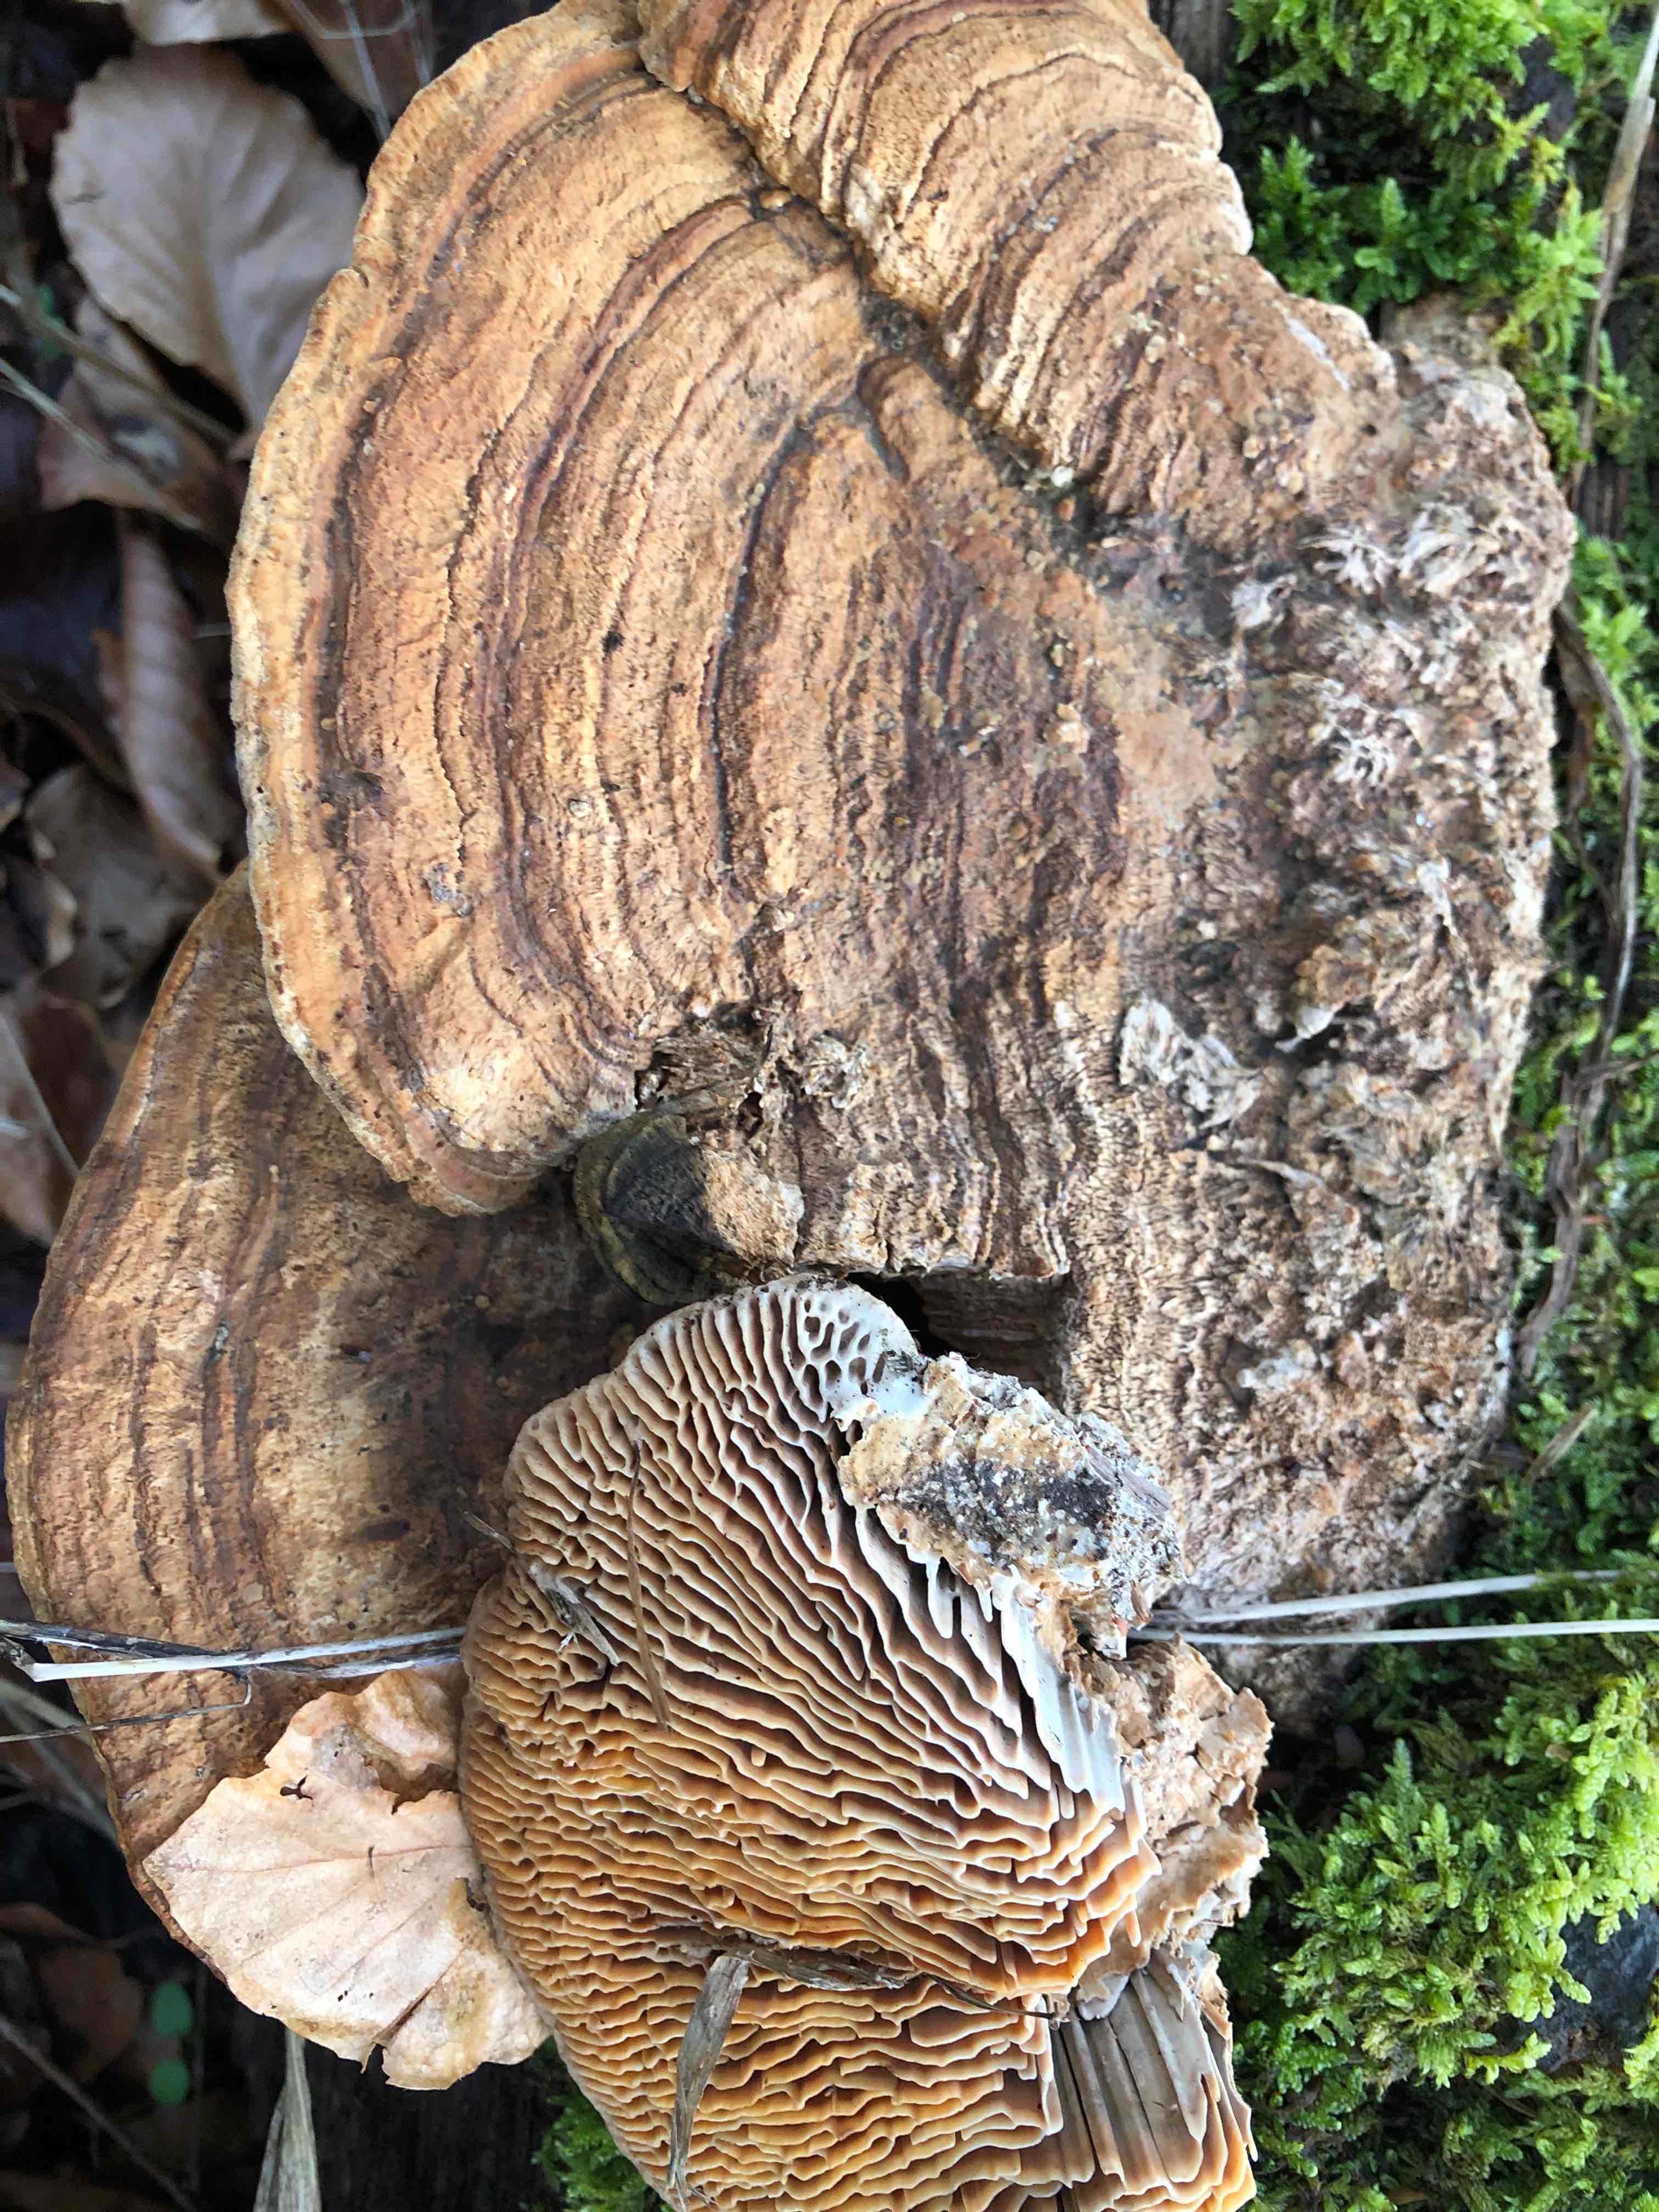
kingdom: Fungi
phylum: Basidiomycota
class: Agaricomycetes
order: Polyporales
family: Fomitopsidaceae
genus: Daedalea
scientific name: Daedalea quercina
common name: ege-labyrintsvamp
